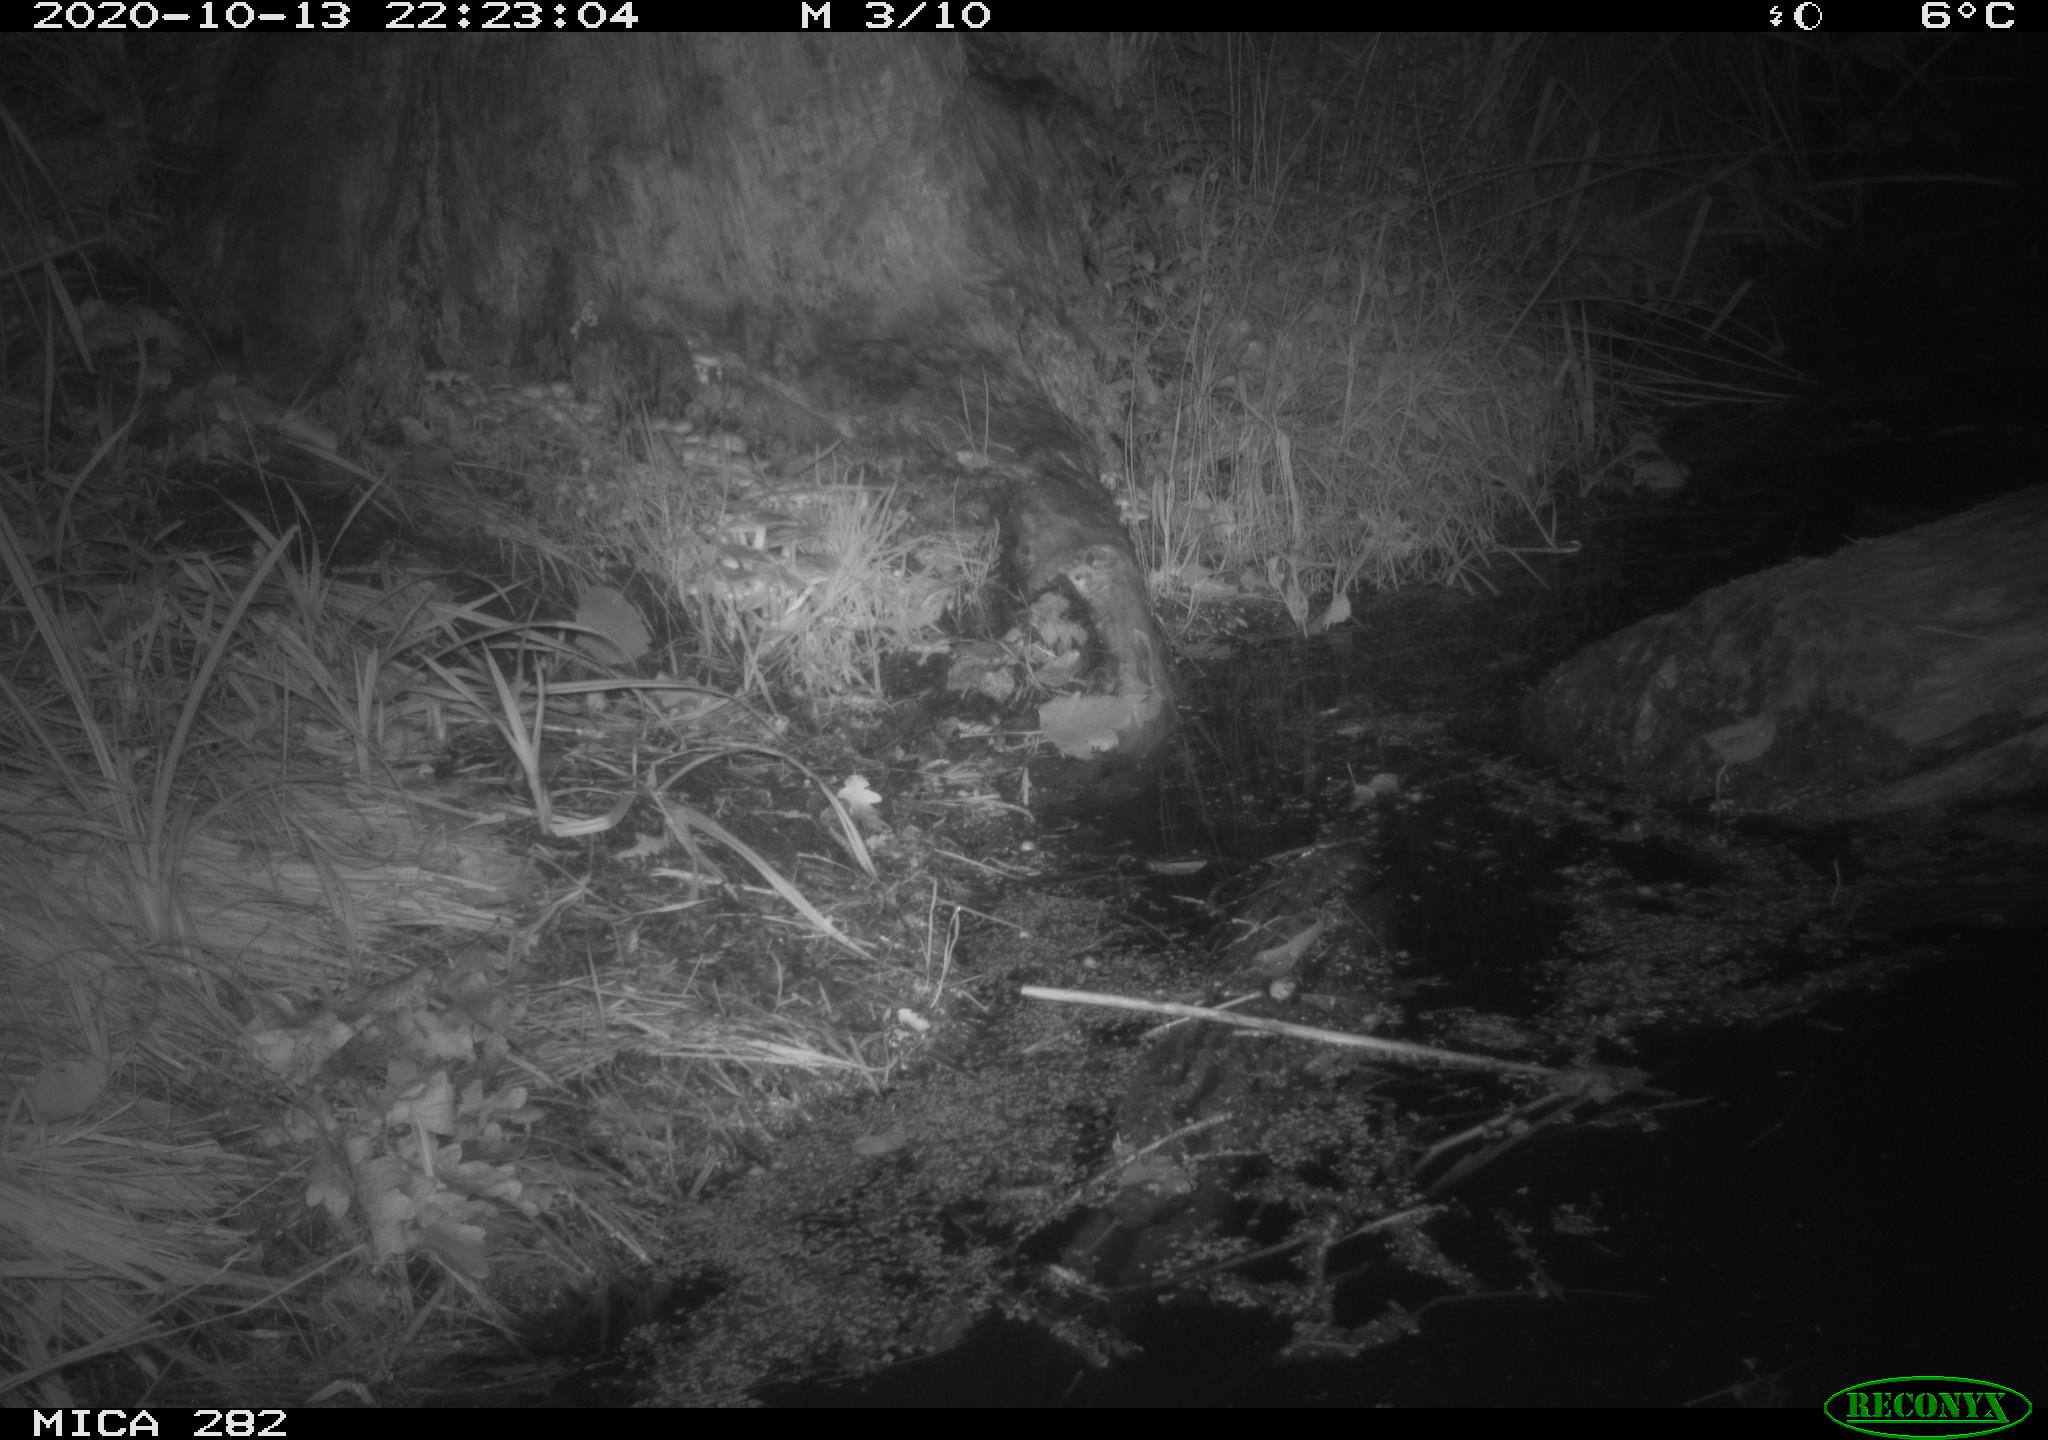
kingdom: Animalia
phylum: Chordata
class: Mammalia
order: Soricomorpha
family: Soricidae
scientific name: Soricidae
